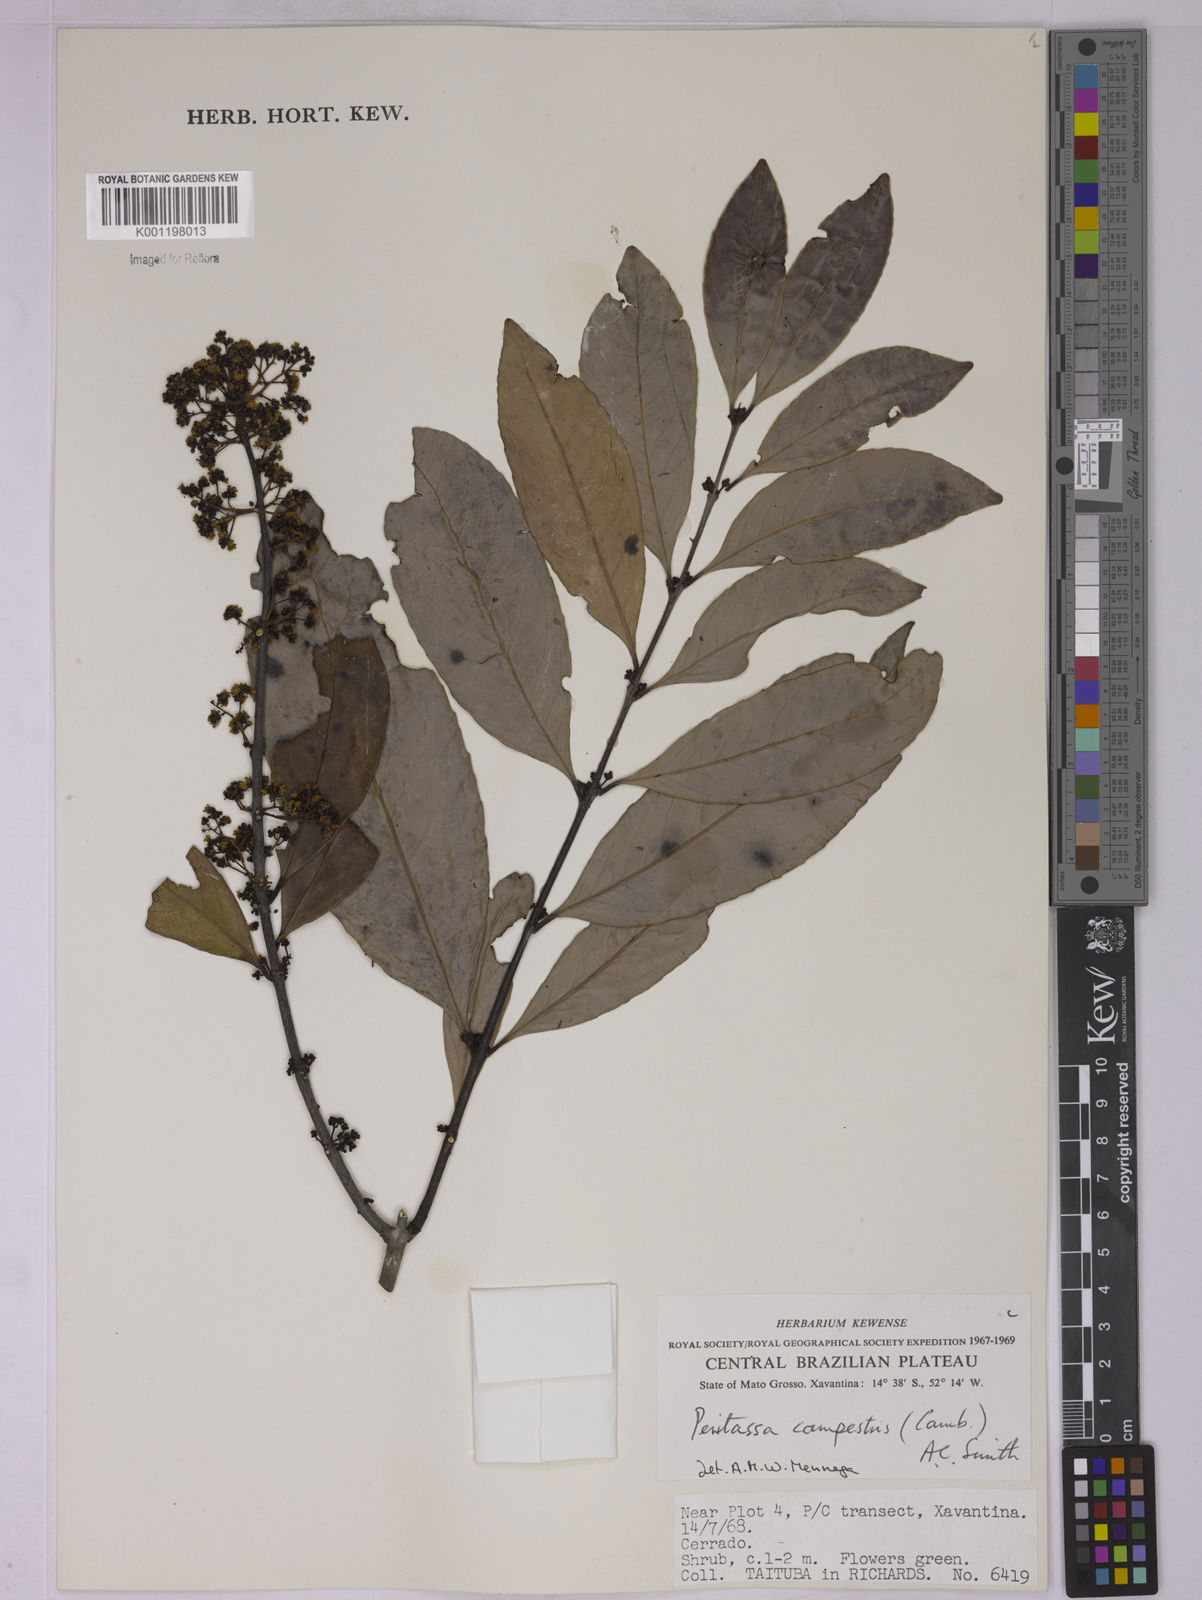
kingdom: Plantae
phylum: Tracheophyta
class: Magnoliopsida
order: Celastrales
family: Celastraceae
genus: Peritassa
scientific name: Peritassa campestris
